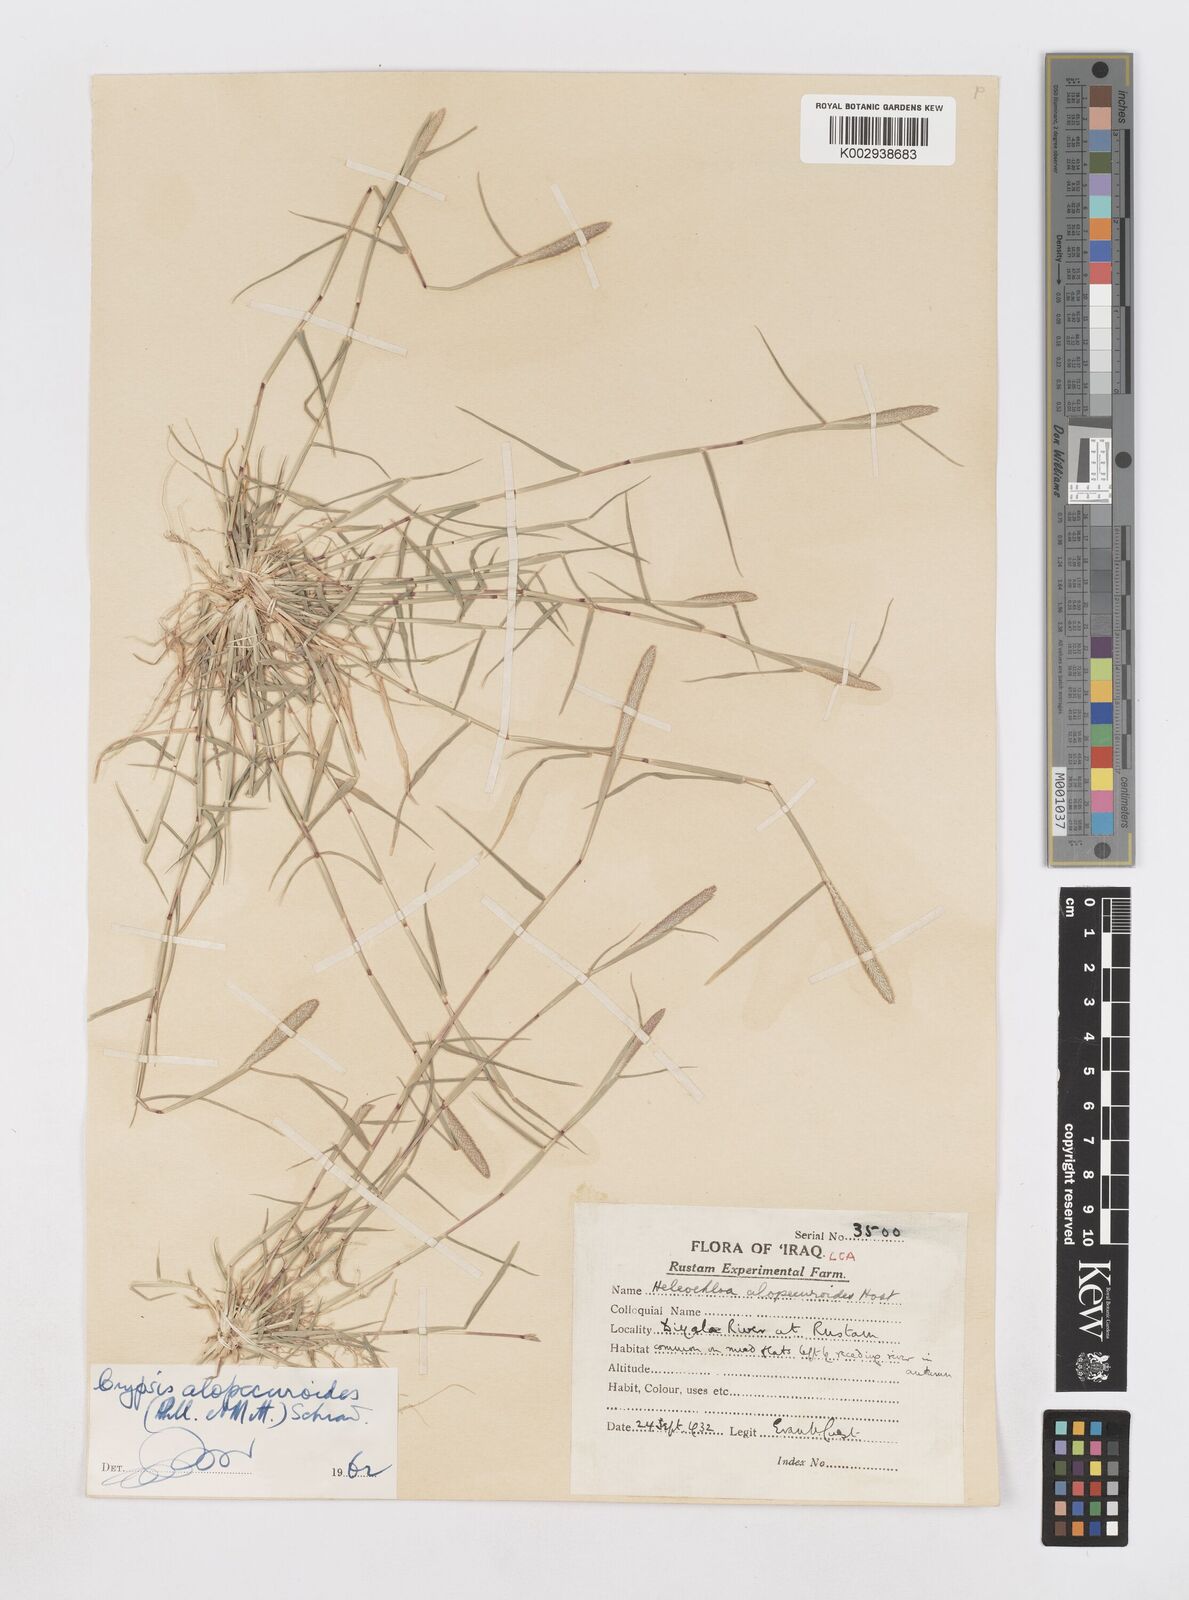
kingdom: Plantae
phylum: Tracheophyta
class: Liliopsida
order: Poales
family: Poaceae
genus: Sporobolus
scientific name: Sporobolus alopecuroides
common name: Foxtail pricklegrass
